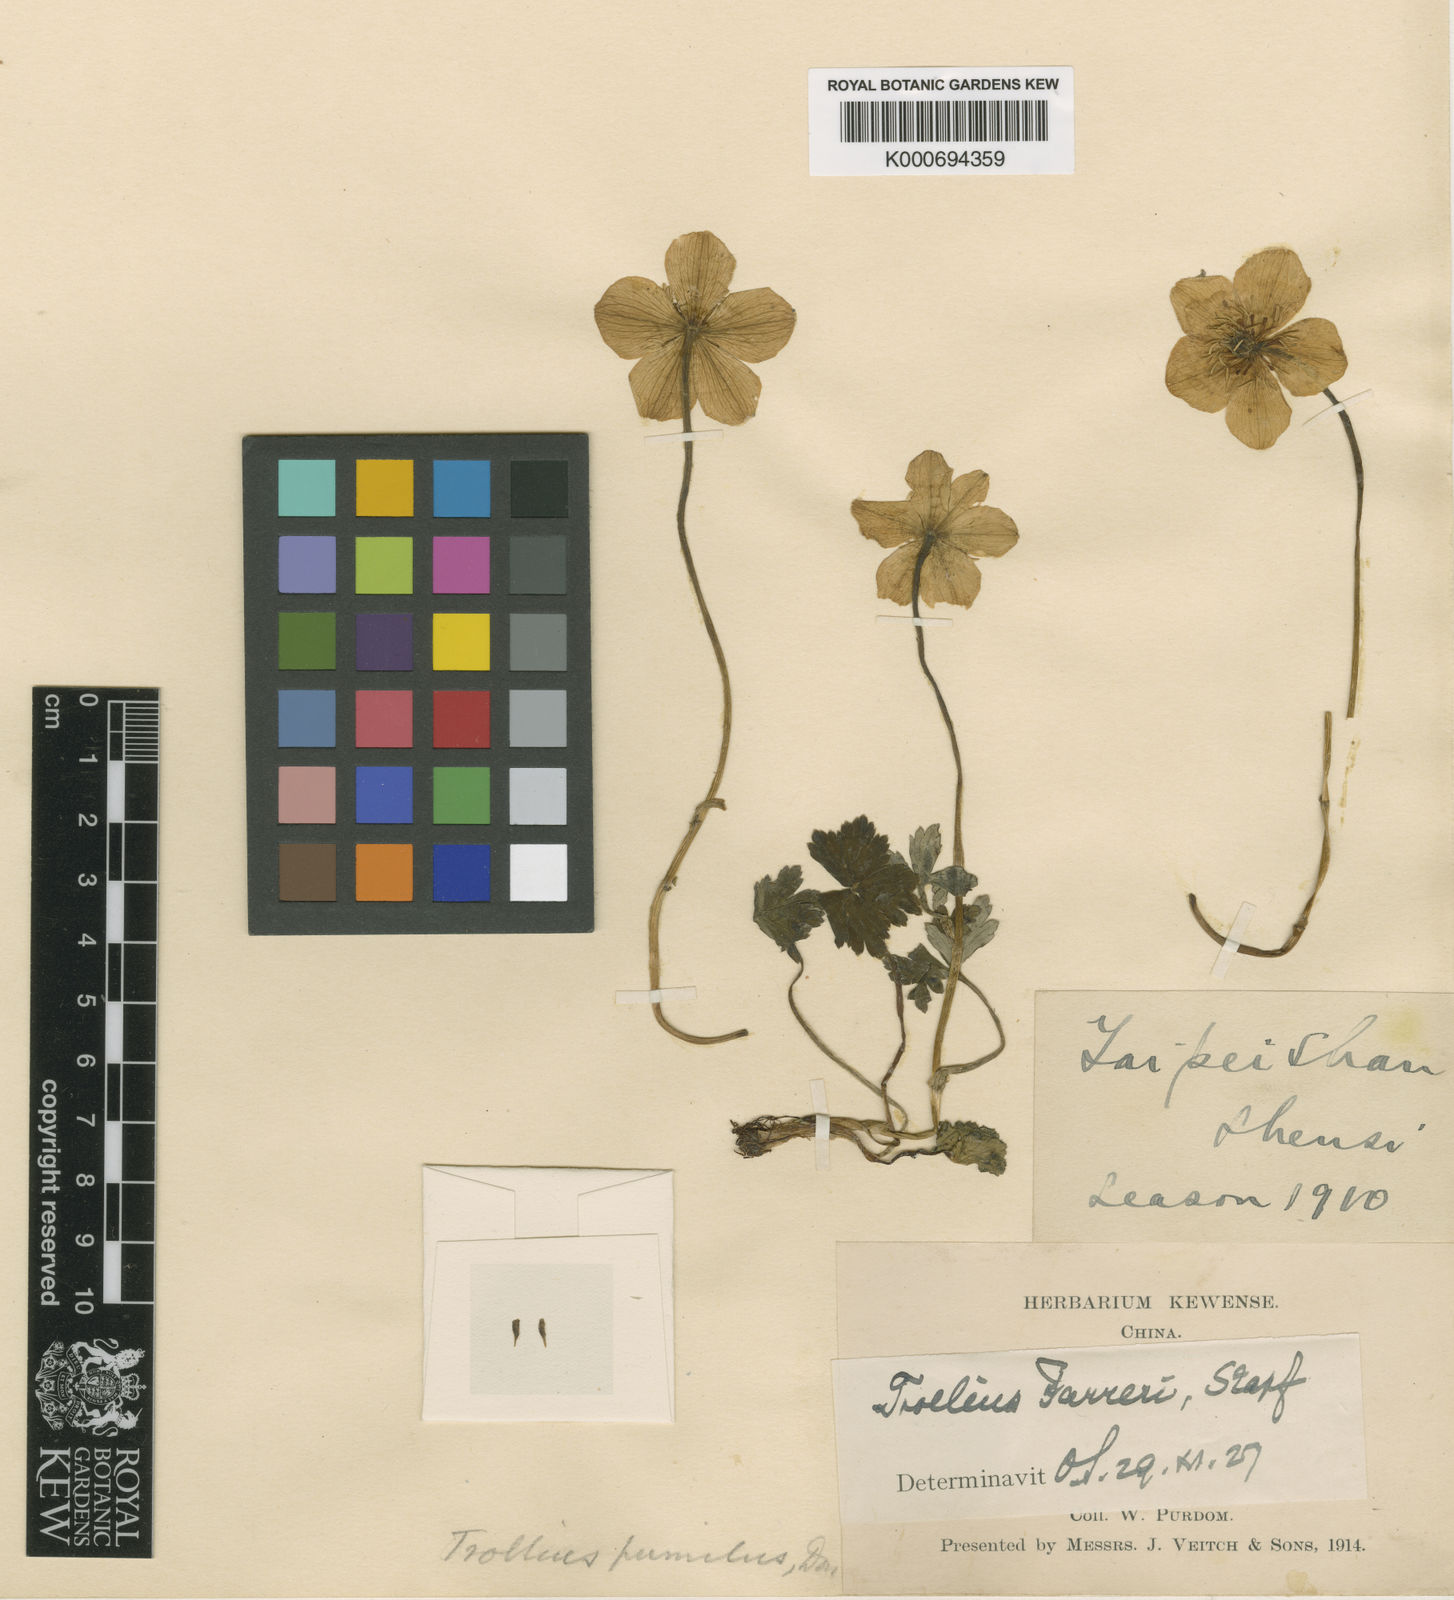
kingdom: Plantae
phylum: Tracheophyta
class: Magnoliopsida
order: Ranunculales
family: Ranunculaceae
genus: Trollius
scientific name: Trollius farreri
